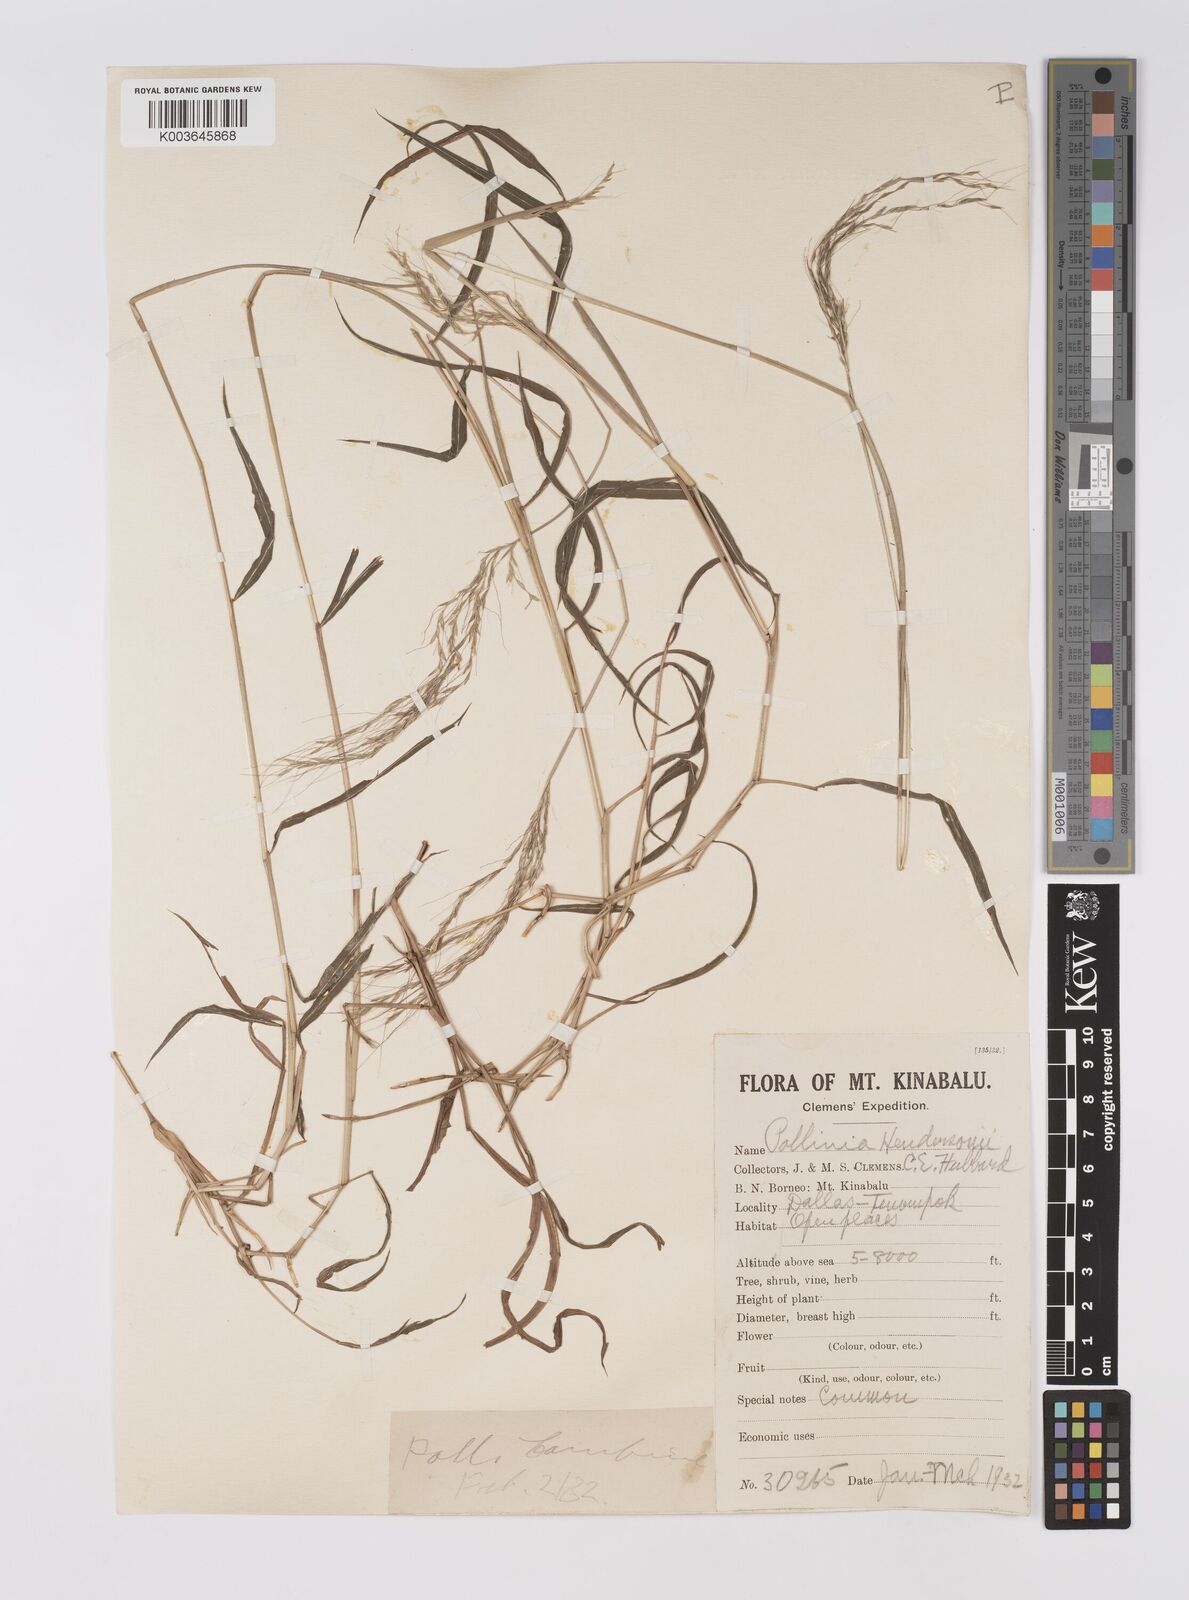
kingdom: Plantae
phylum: Tracheophyta
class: Liliopsida
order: Poales
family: Poaceae
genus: Microstegium
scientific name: Microstegium geniculatum
